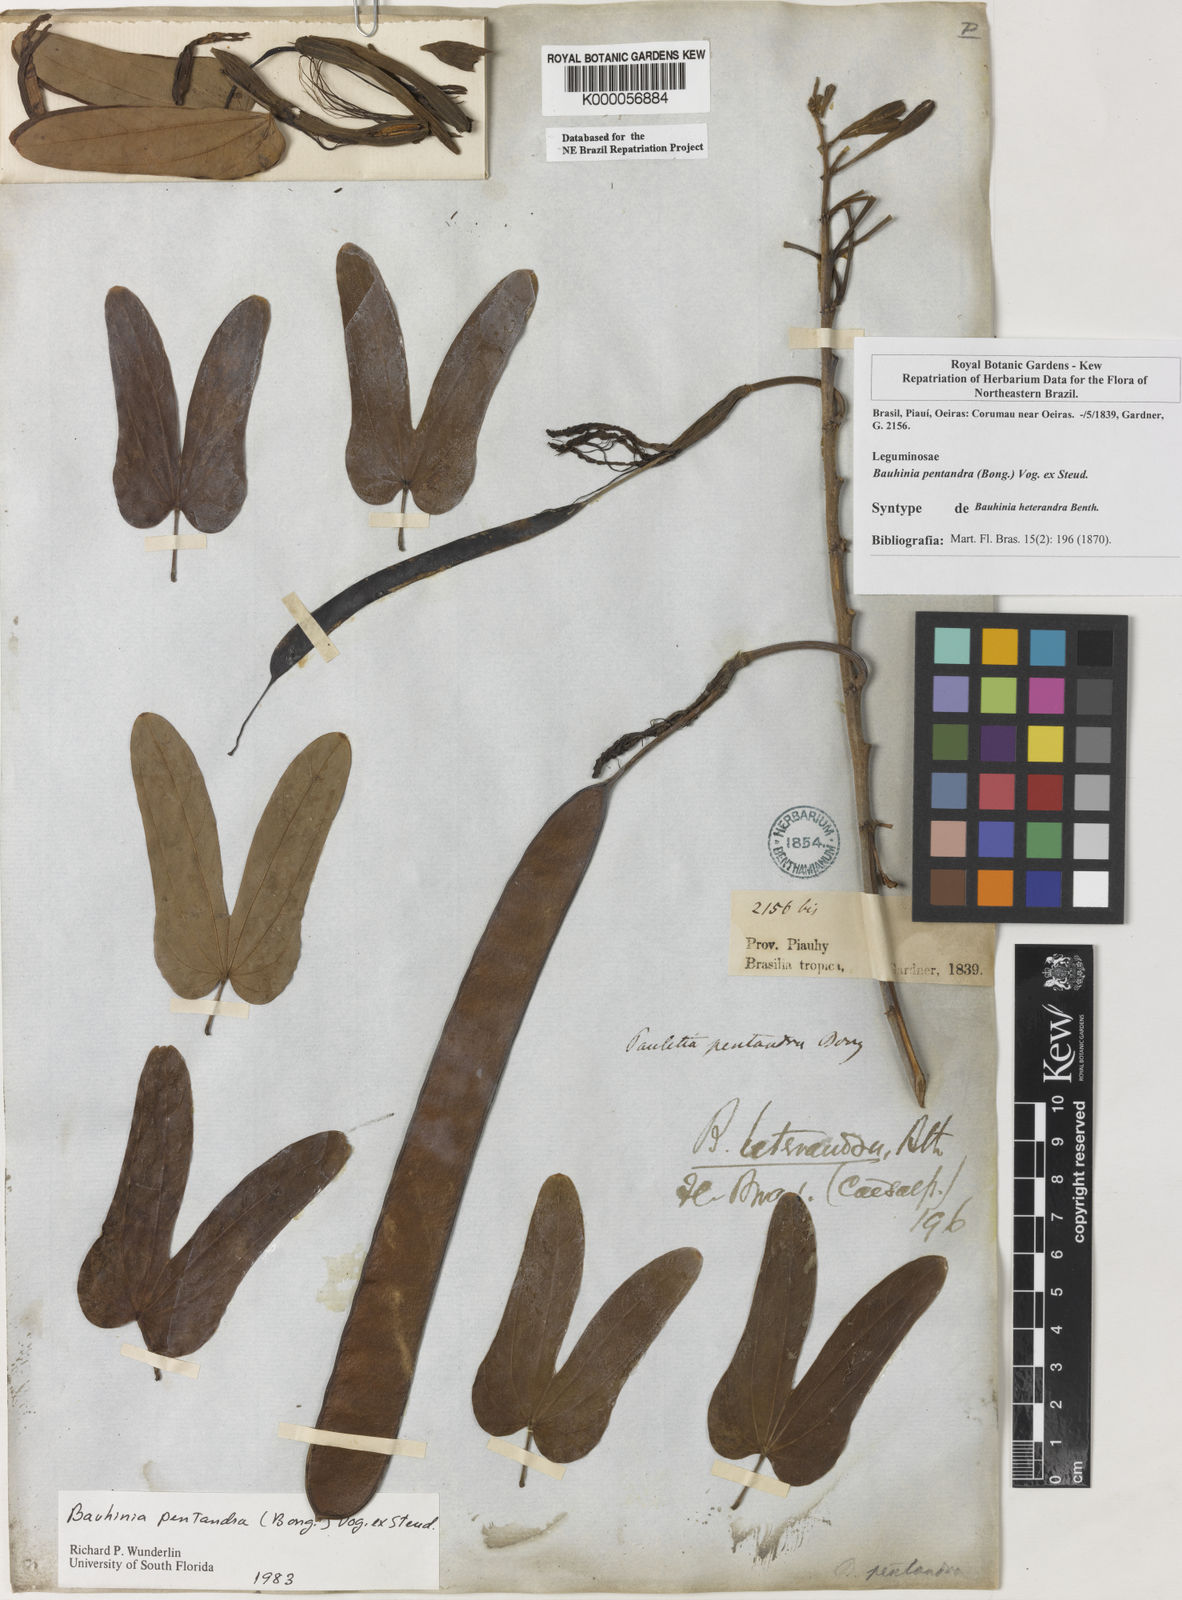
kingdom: Plantae
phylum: Tracheophyta
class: Magnoliopsida
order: Fabales
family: Fabaceae
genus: Bauhinia
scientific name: Bauhinia
